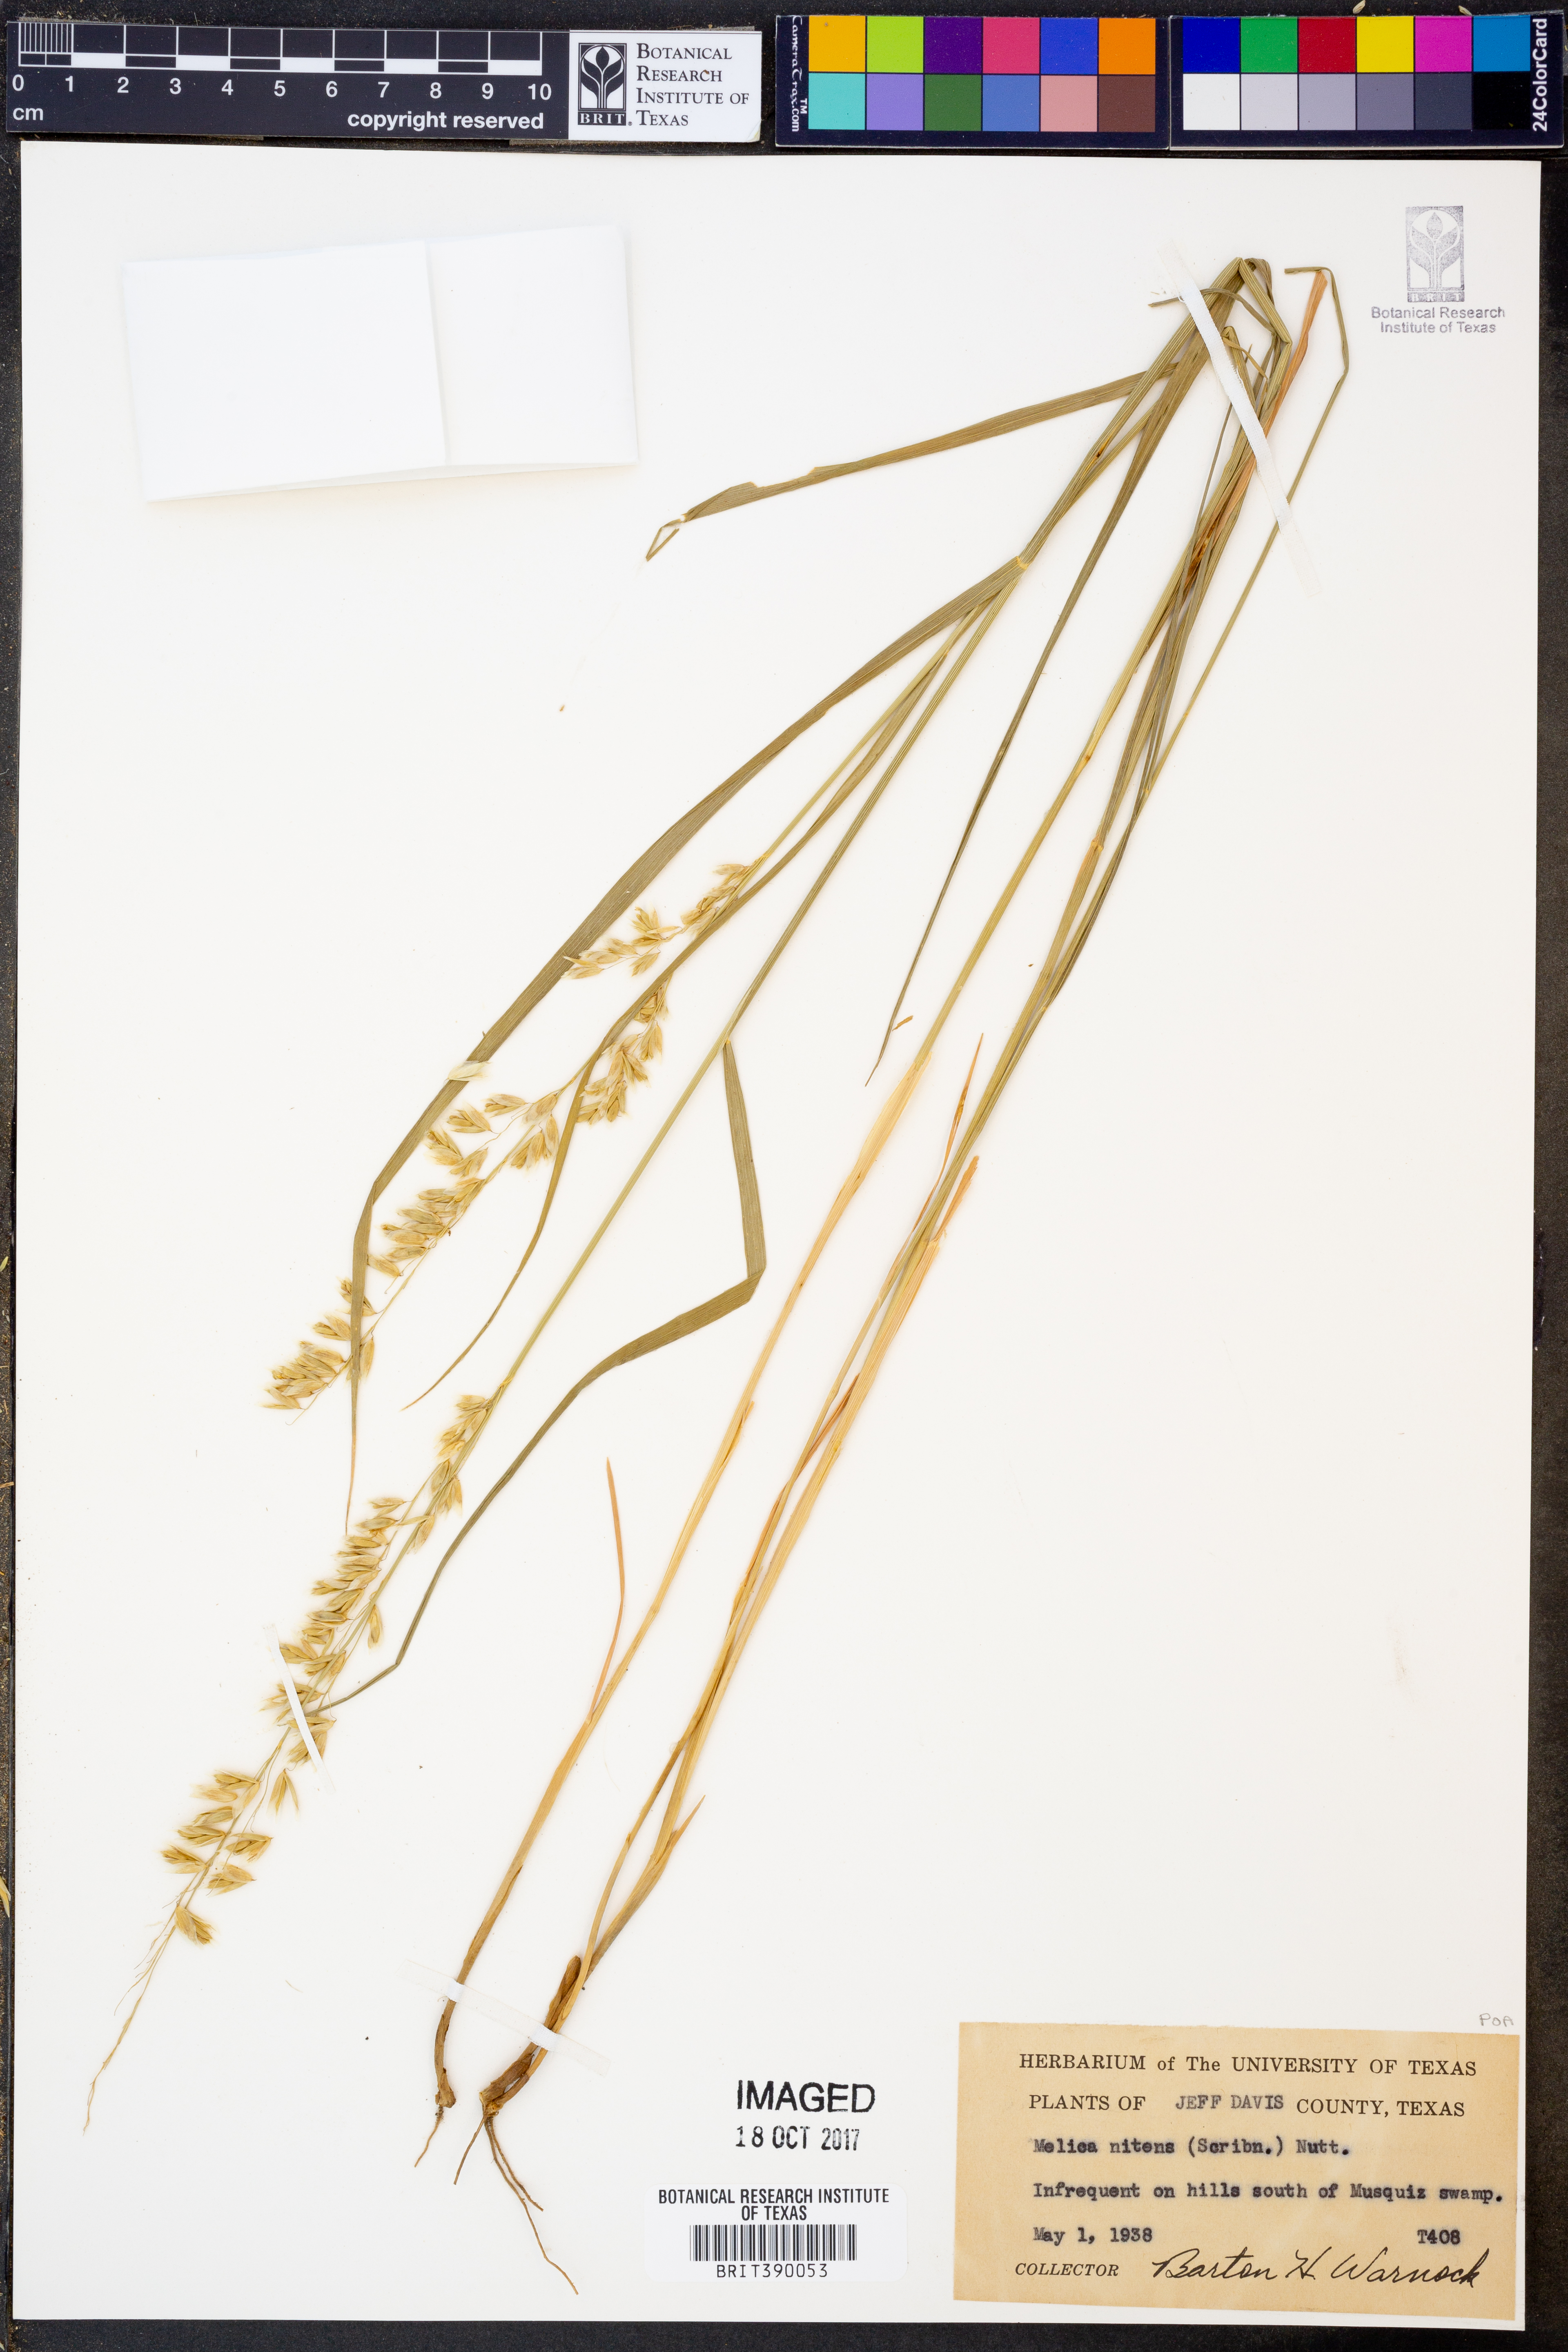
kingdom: Plantae
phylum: Tracheophyta
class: Liliopsida
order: Poales
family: Poaceae
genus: Melica
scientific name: Melica nitens
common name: Three-flower melic
